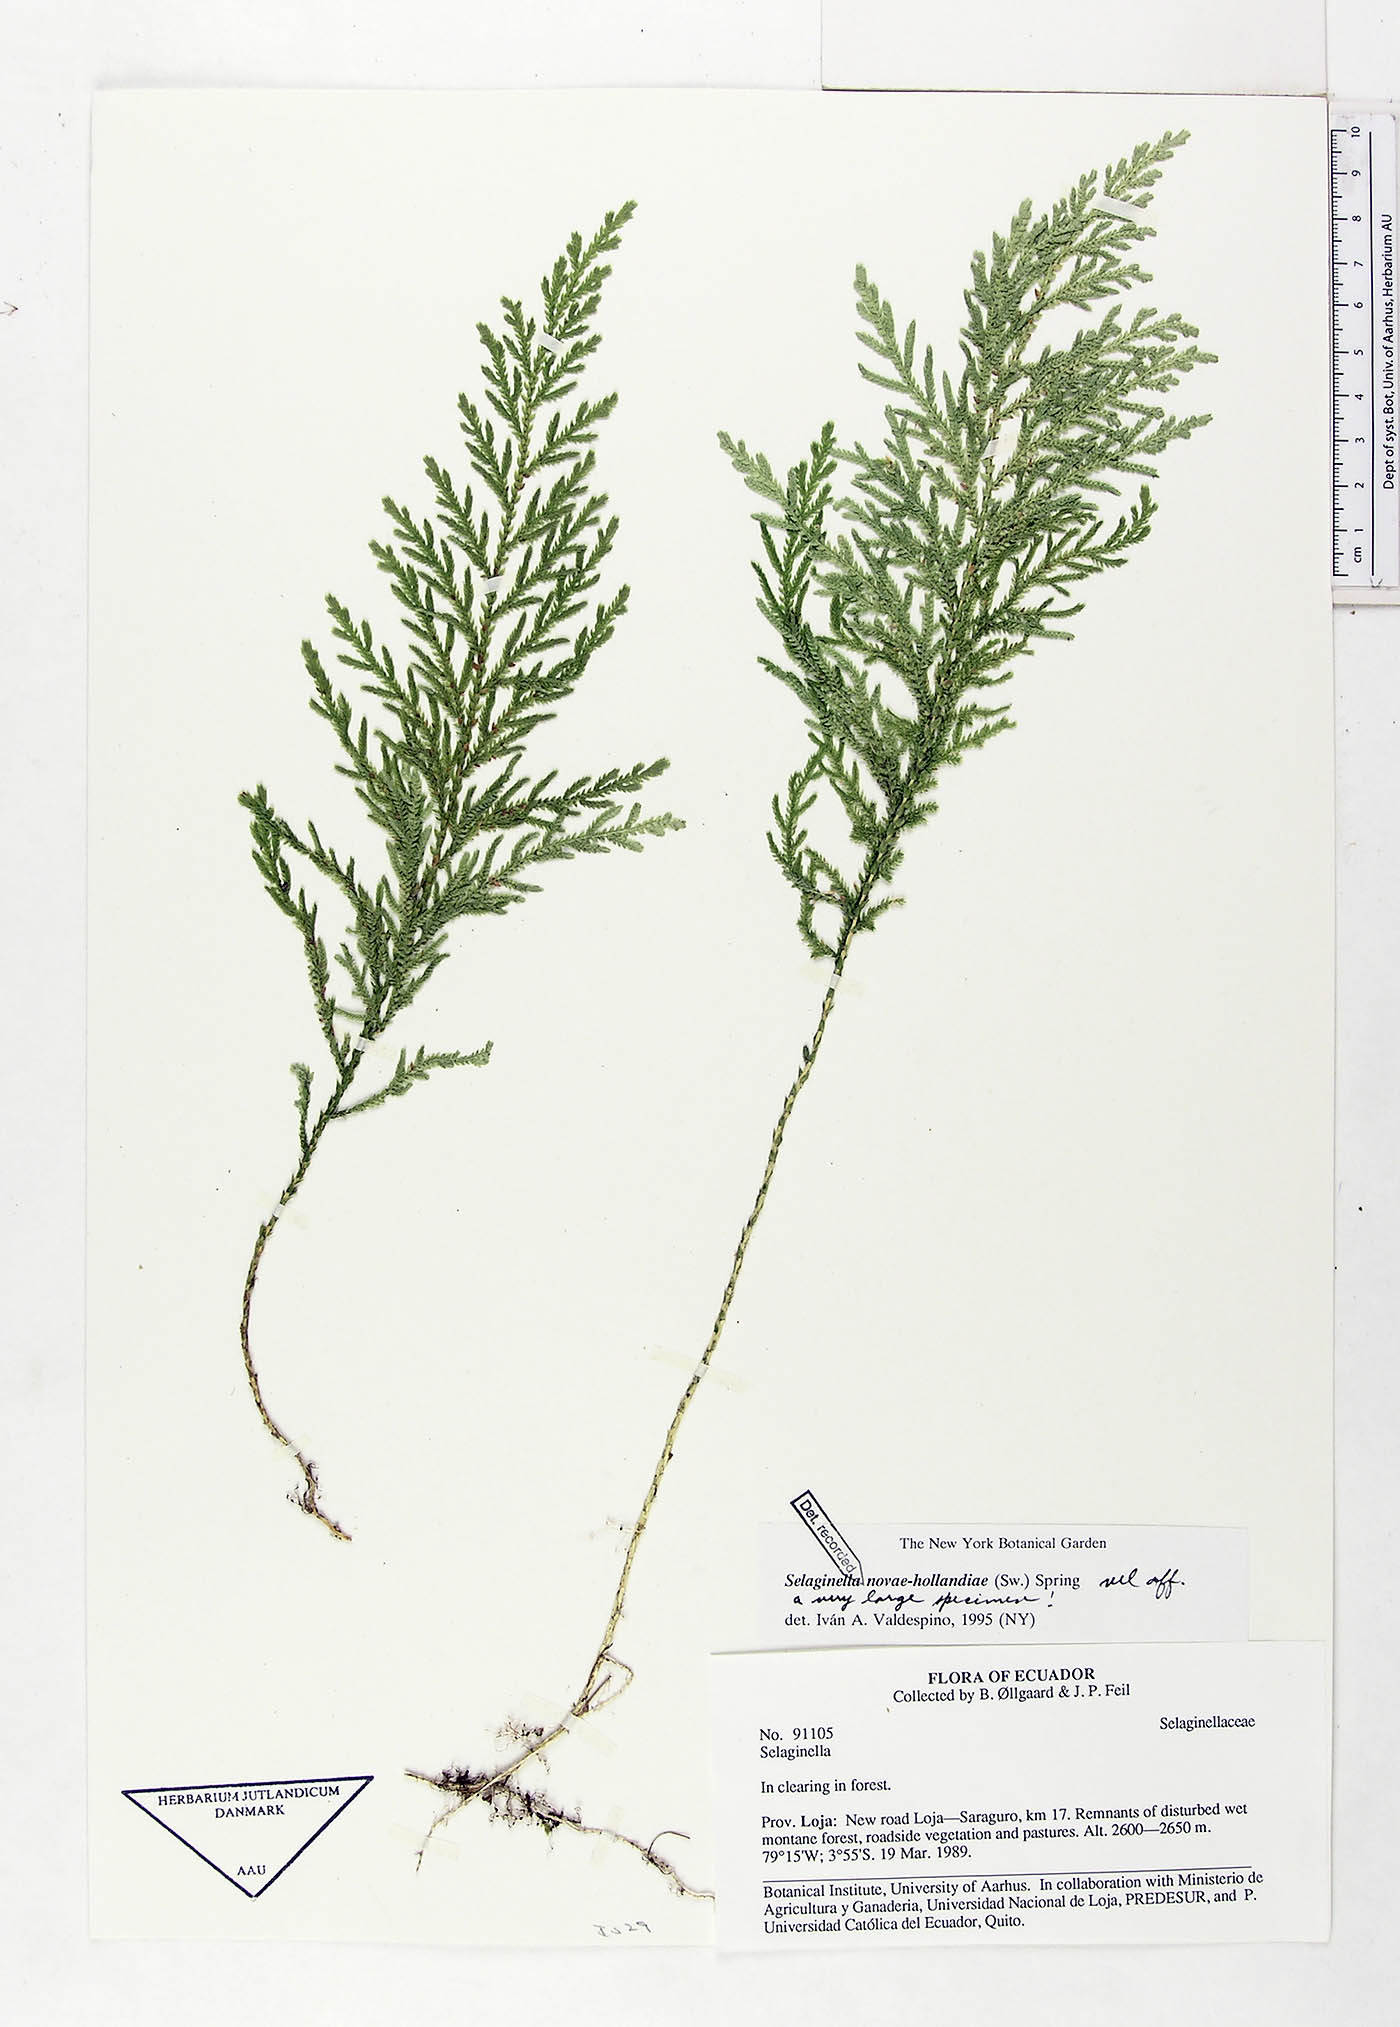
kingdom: Plantae
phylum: Tracheophyta
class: Lycopodiopsida
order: Selaginellales
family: Selaginellaceae
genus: Selaginella
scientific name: Selaginella novae-hollandiae
